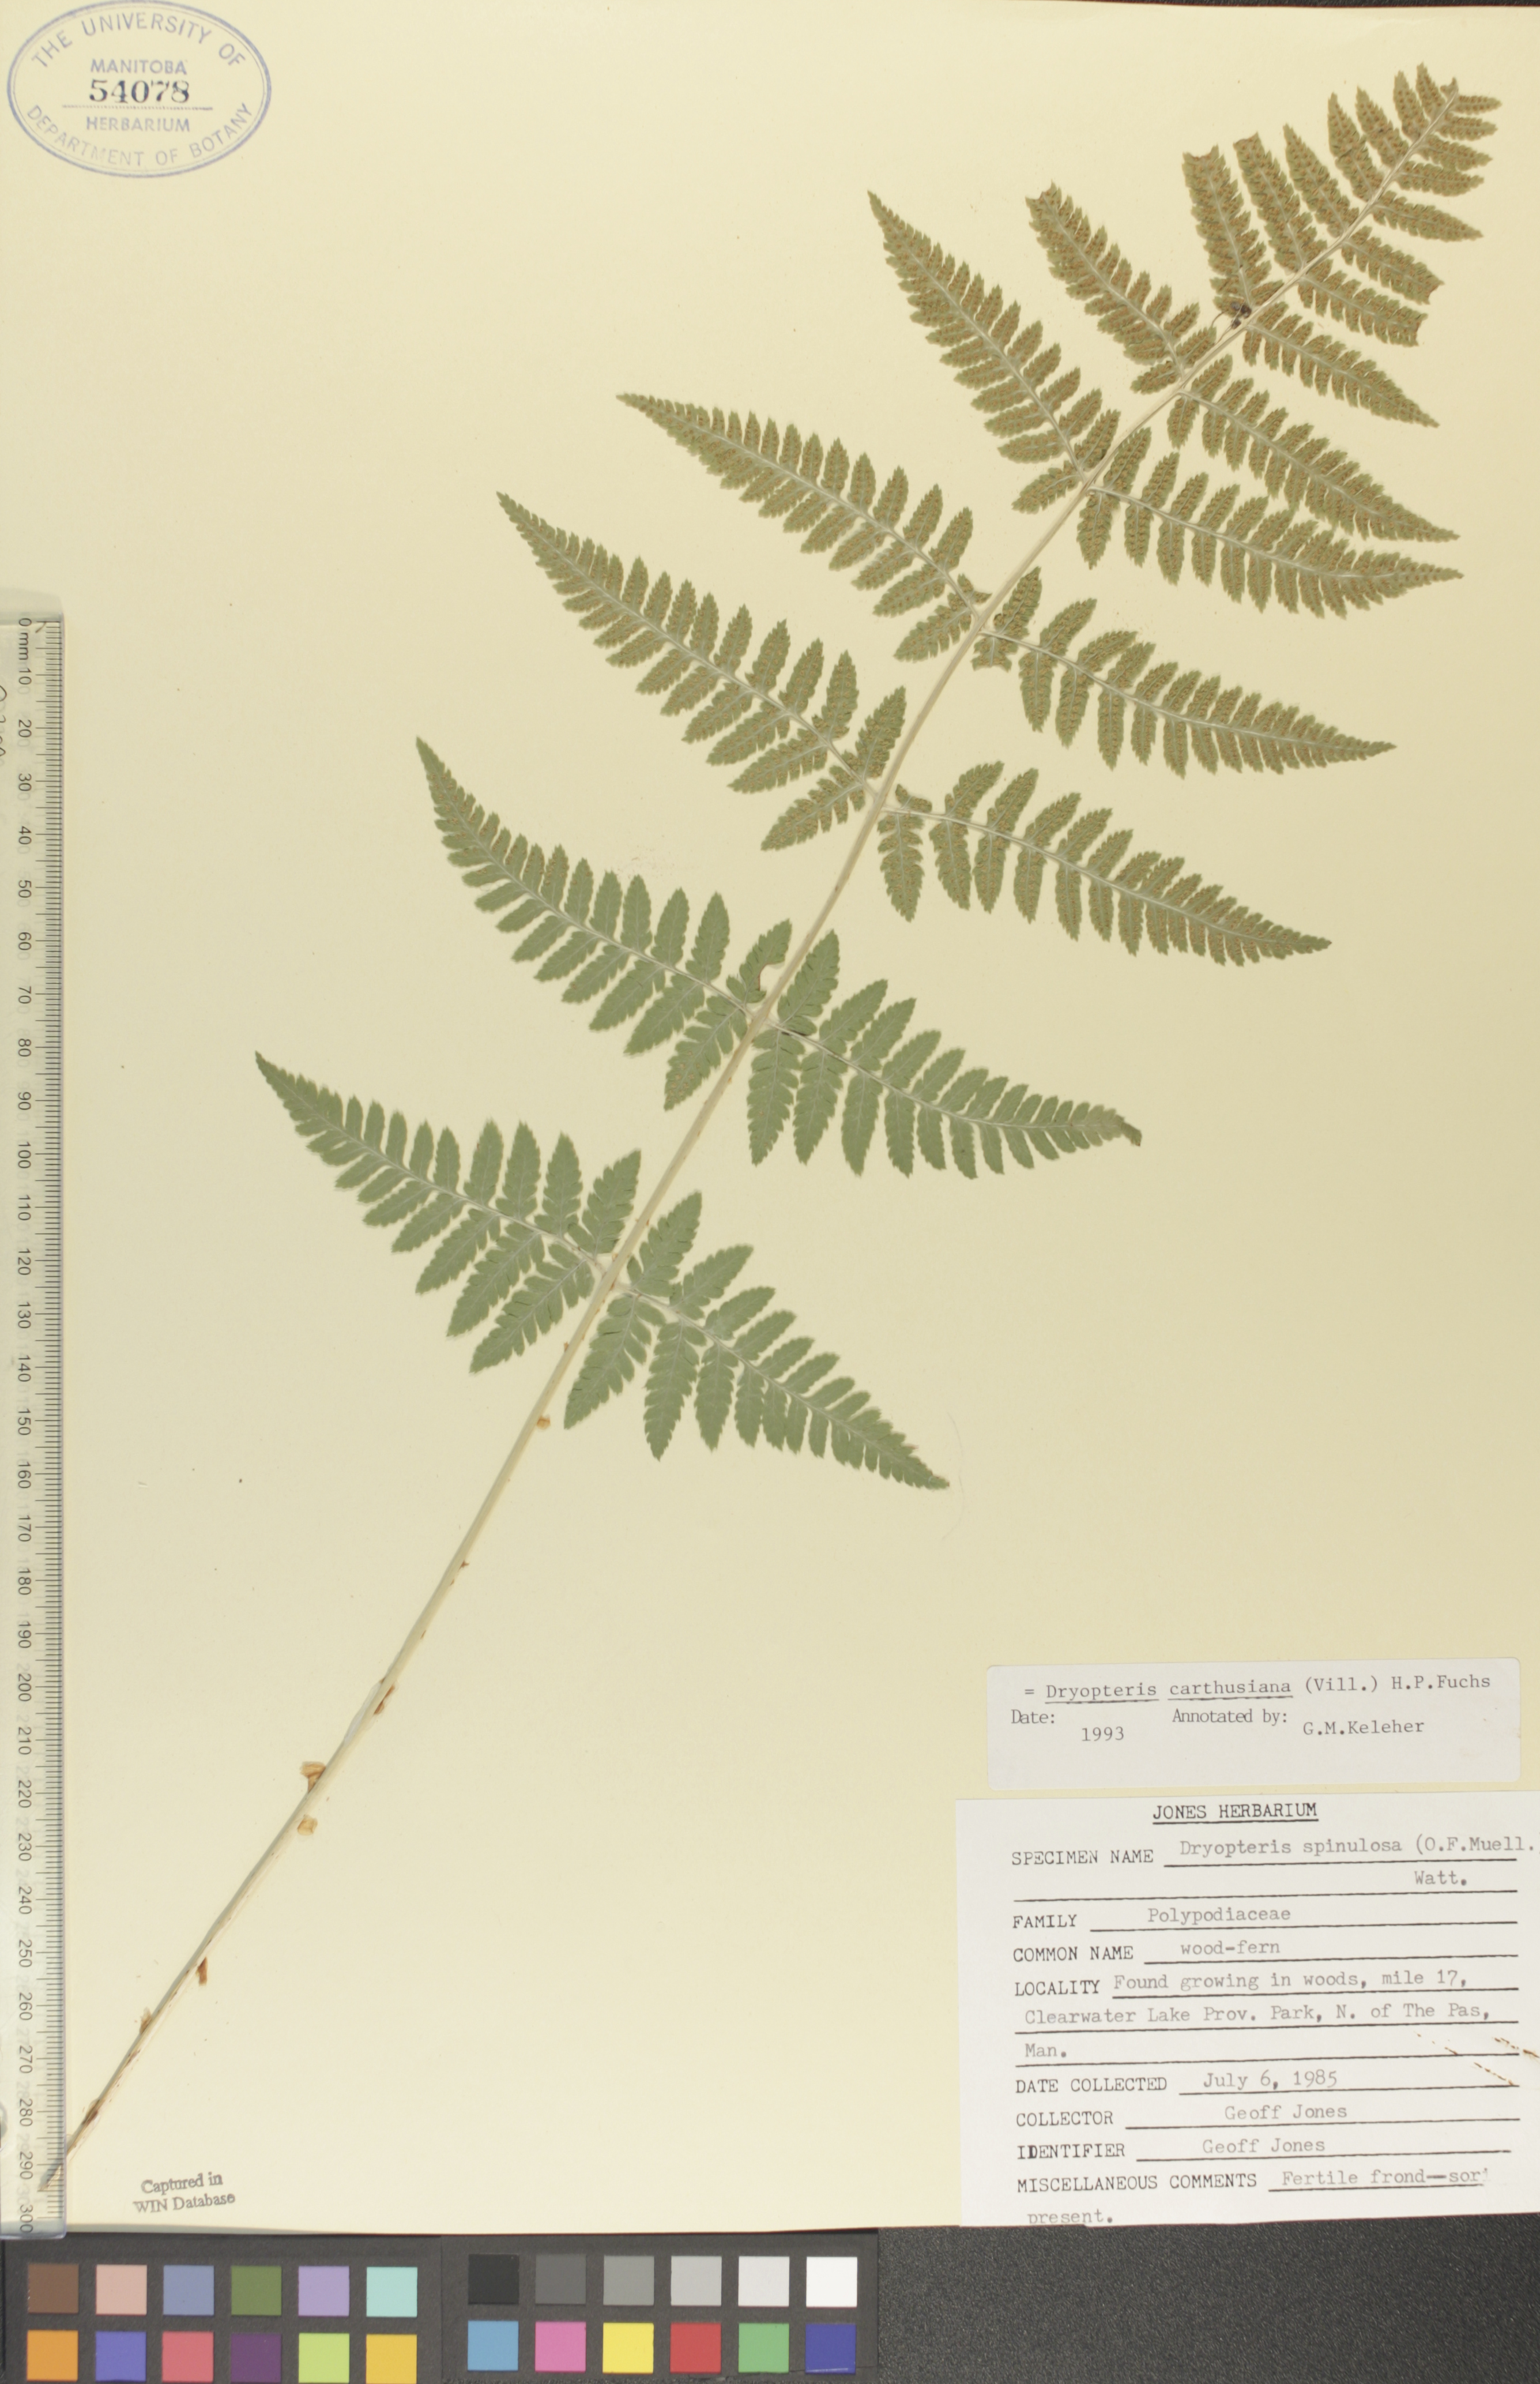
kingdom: Plantae
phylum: Tracheophyta
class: Polypodiopsida
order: Polypodiales
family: Dryopteridaceae
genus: Dryopteris
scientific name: Dryopteris carthusiana
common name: Narrow buckler-fern
